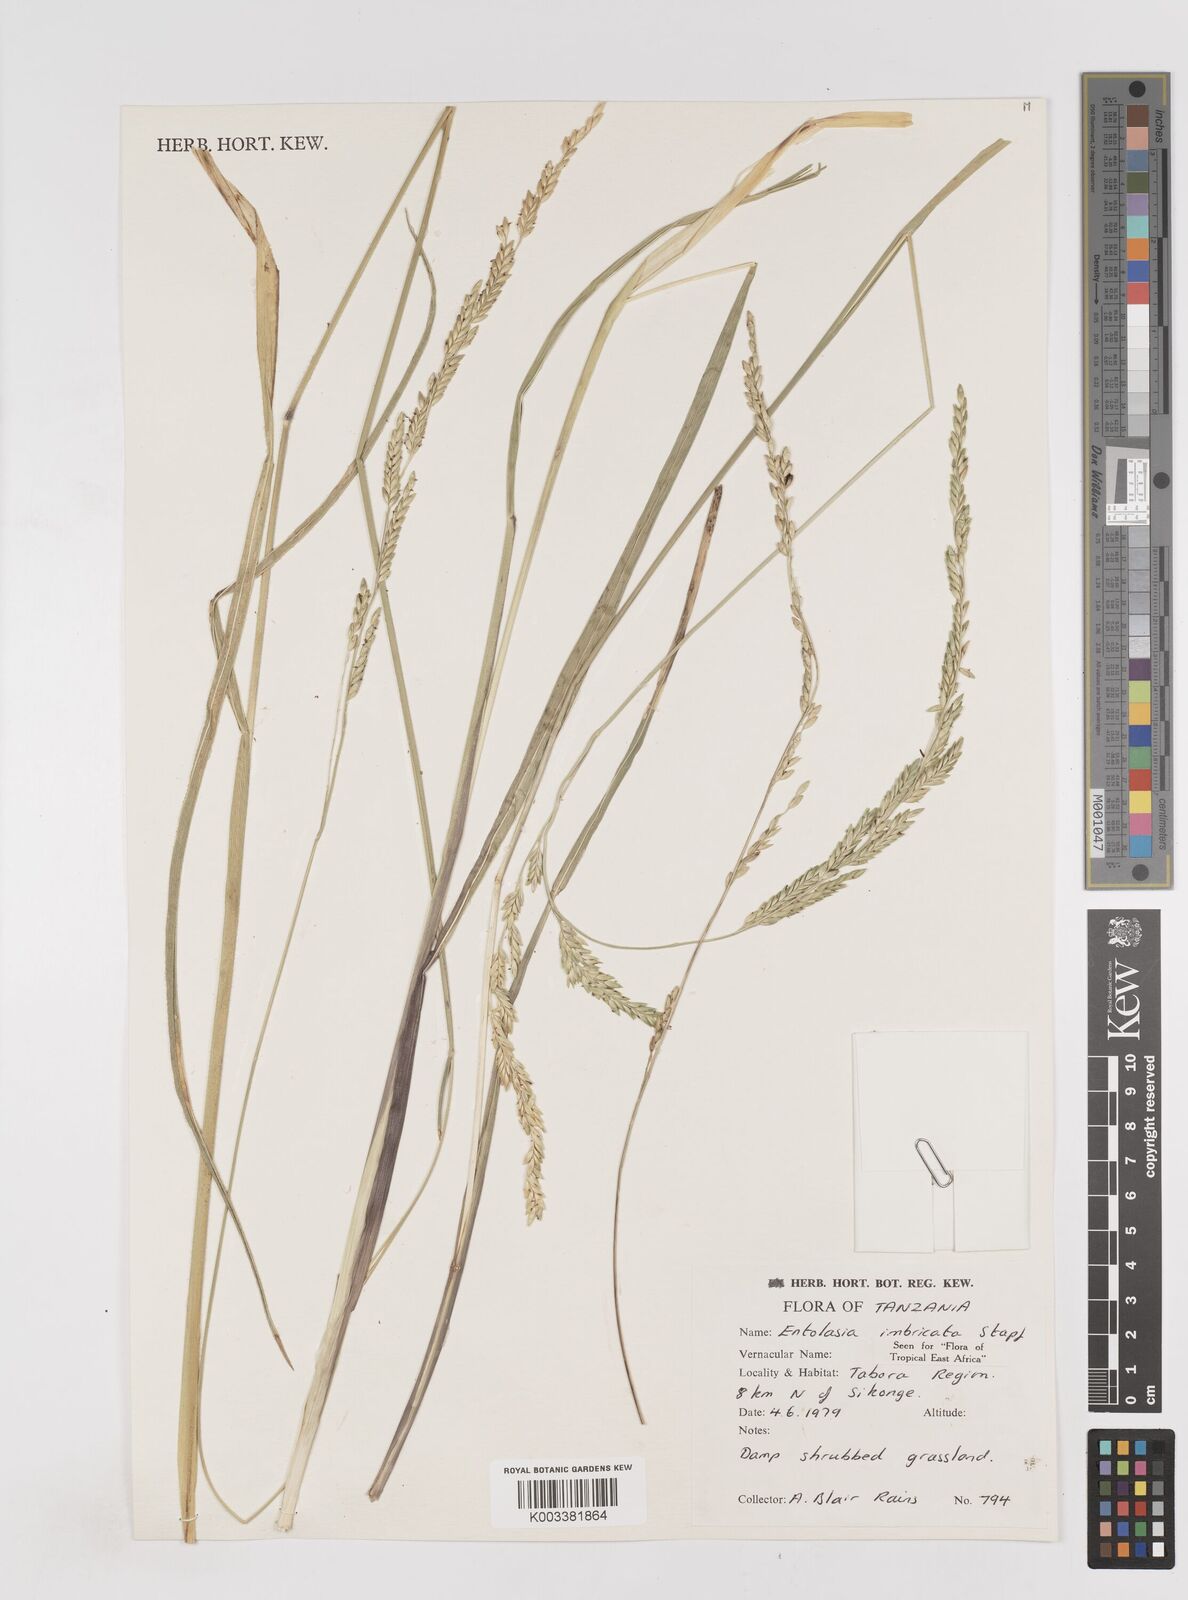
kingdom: Plantae
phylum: Tracheophyta
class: Liliopsida
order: Poales
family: Poaceae
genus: Entolasia
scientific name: Entolasia imbricata
